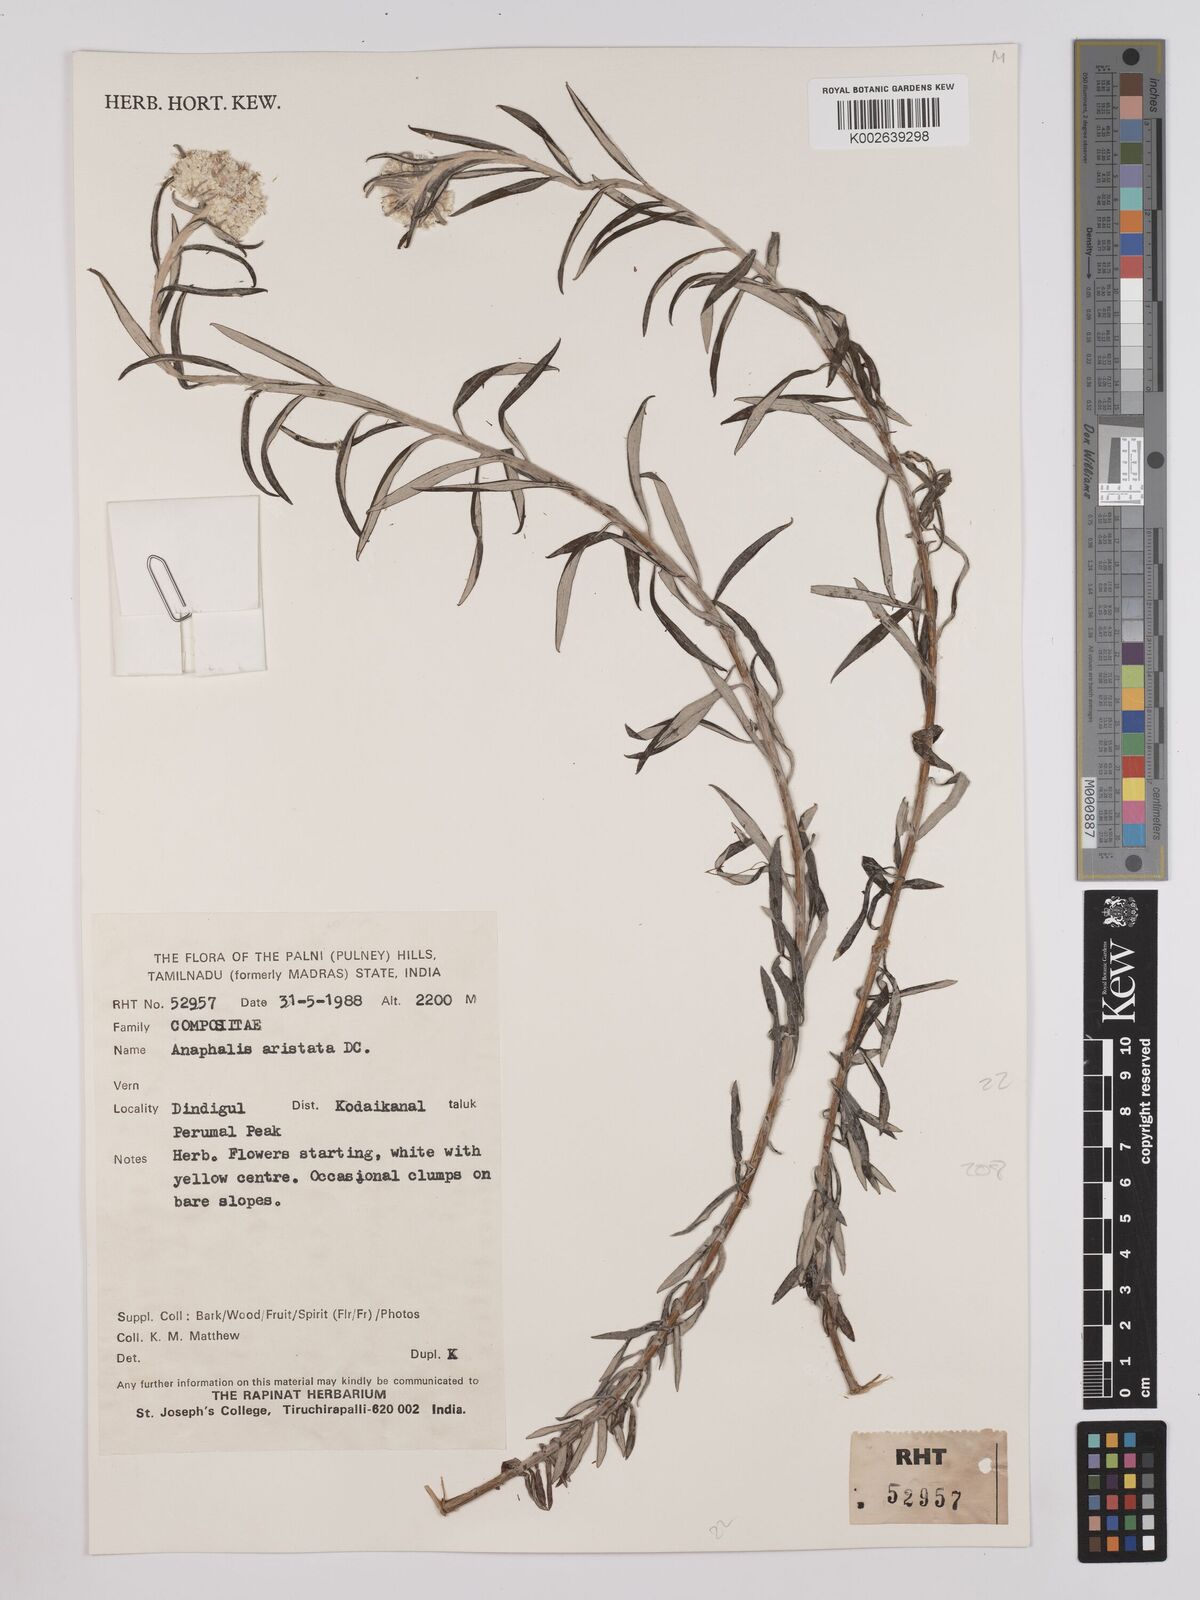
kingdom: Plantae
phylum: Tracheophyta
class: Magnoliopsida
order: Asterales
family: Asteraceae
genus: Anaphalis
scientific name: Anaphalis aristata
